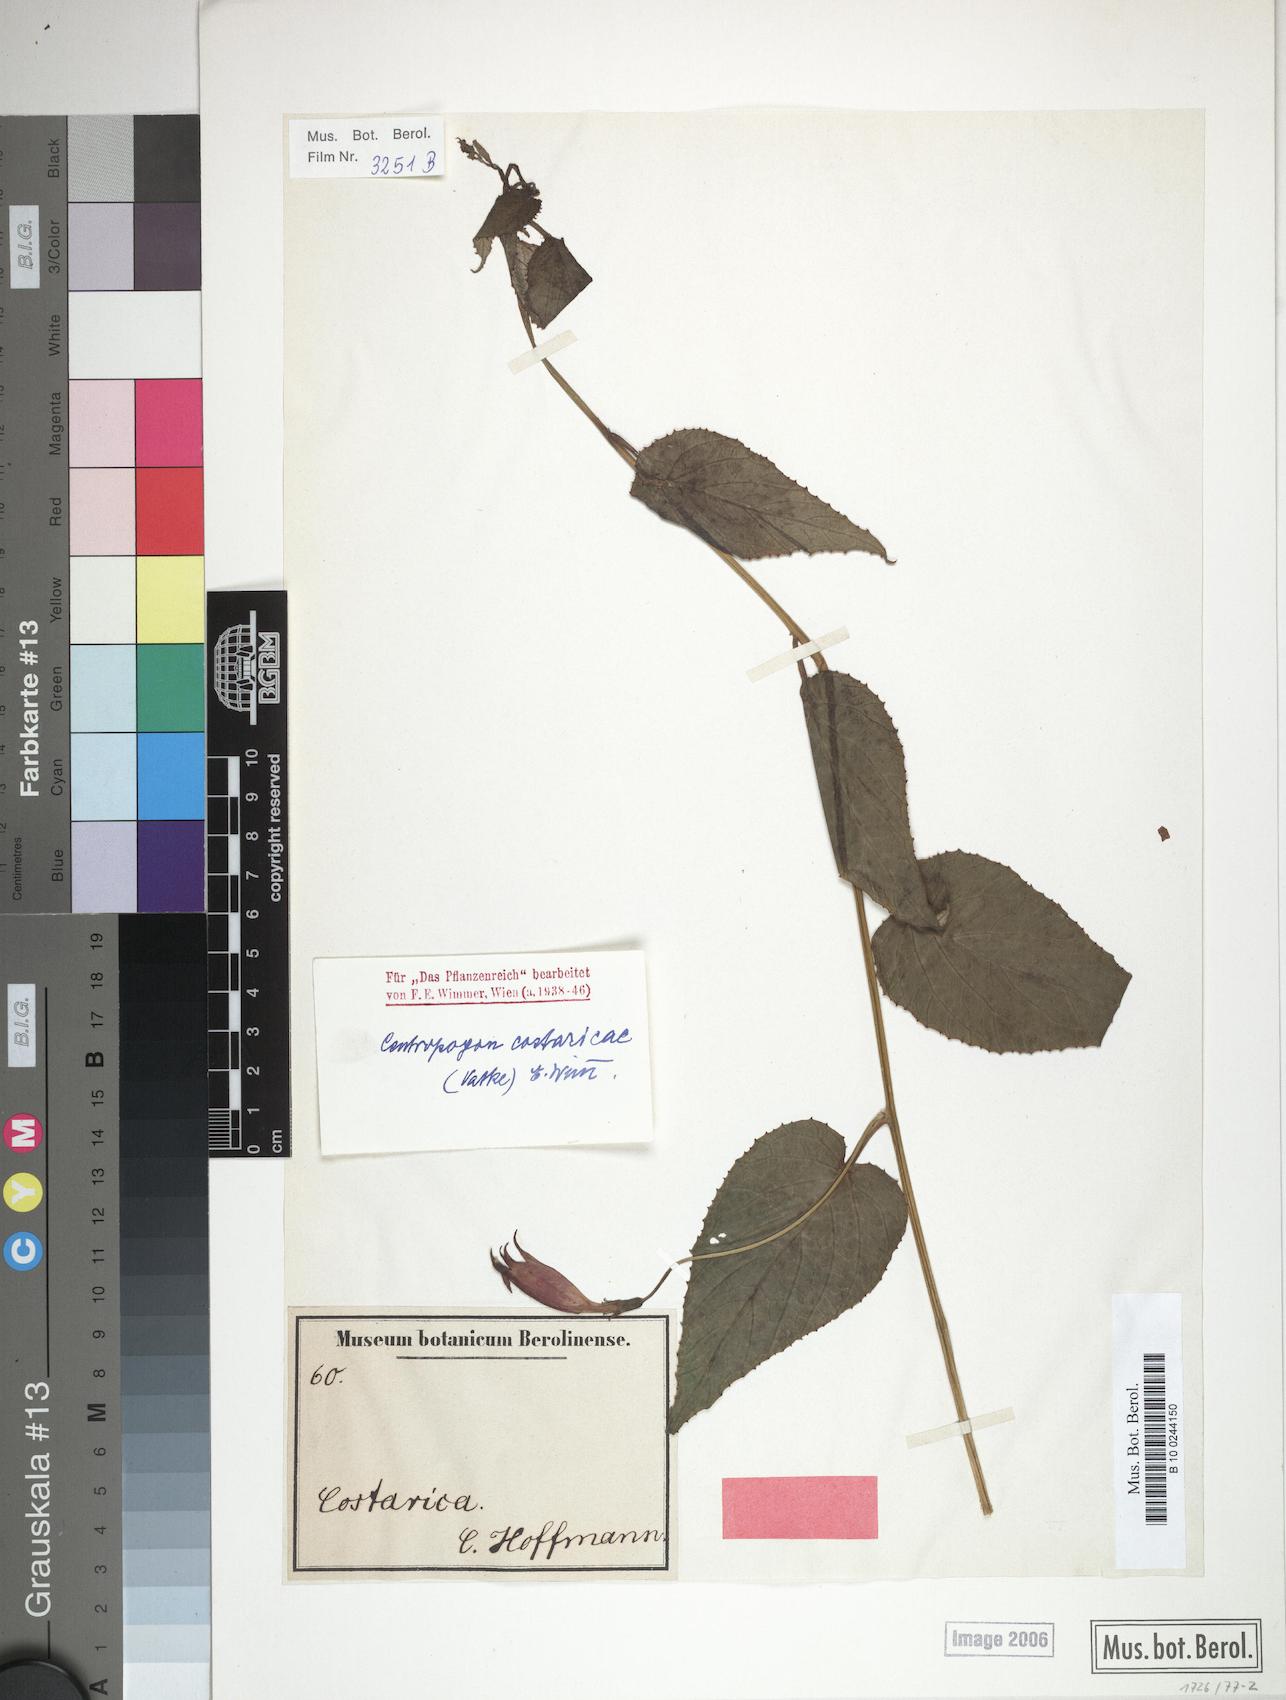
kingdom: Plantae
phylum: Tracheophyta
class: Magnoliopsida
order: Asterales
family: Campanulaceae
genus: Centropogon
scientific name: Centropogon costaricae
